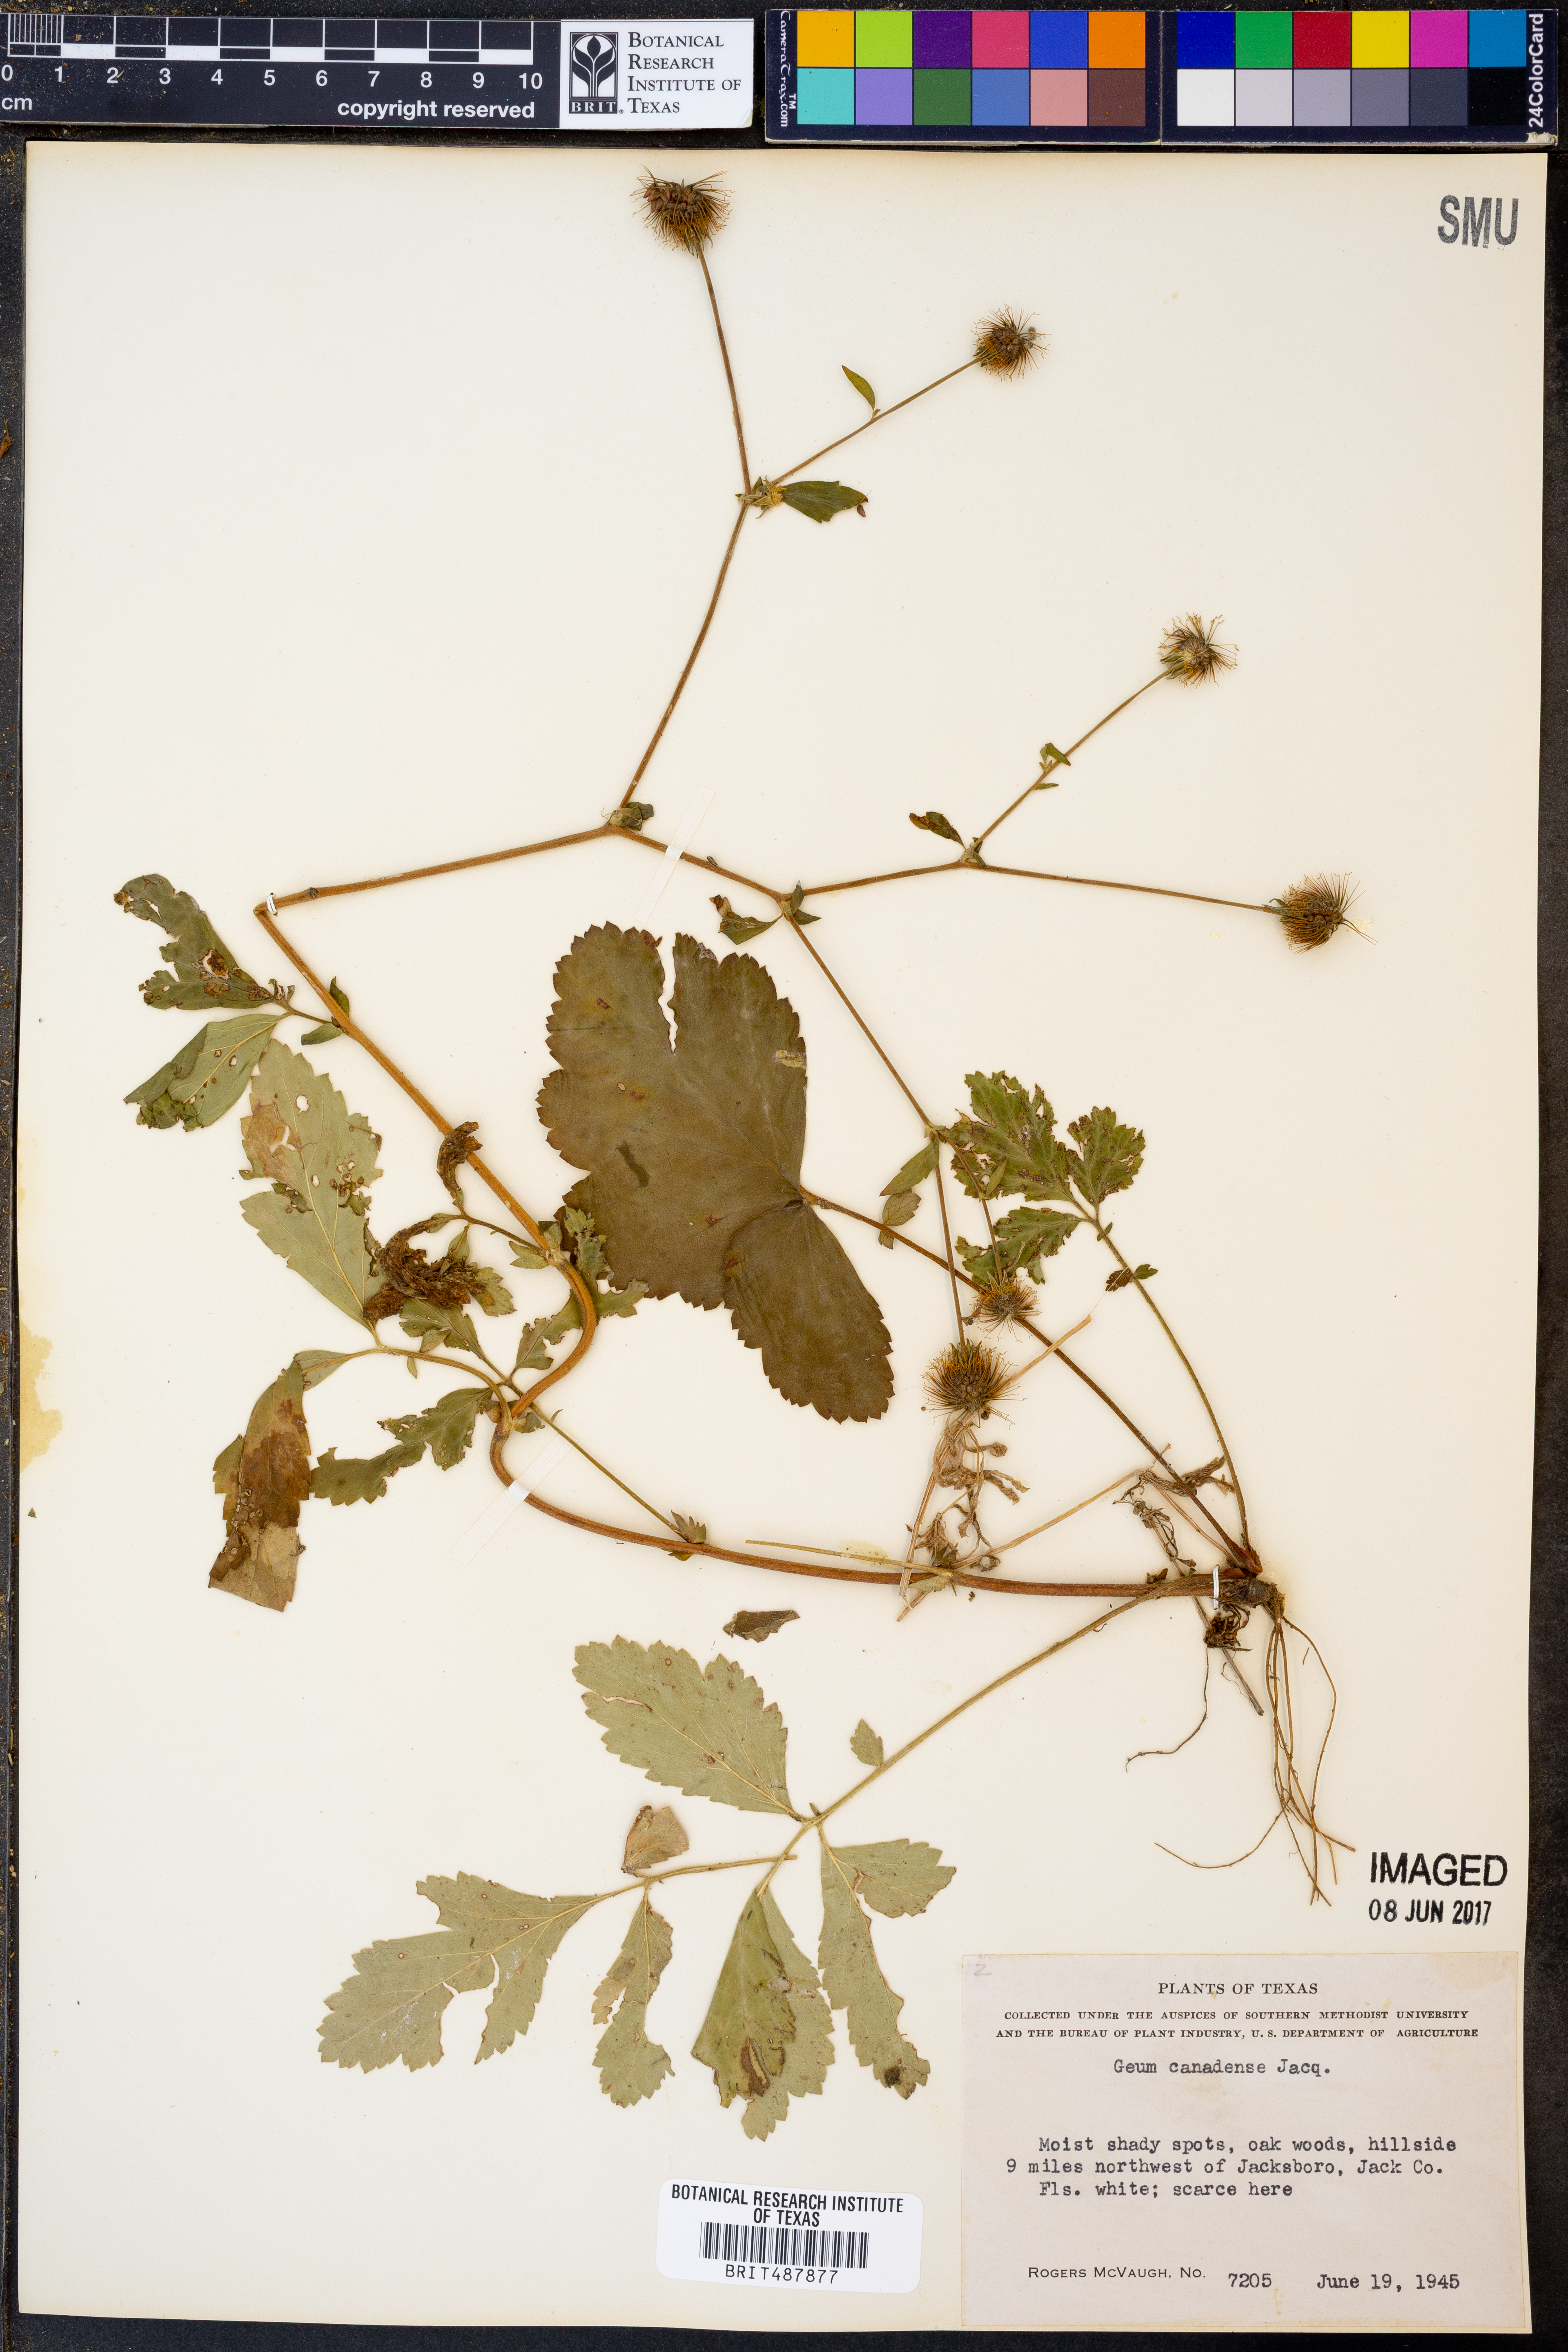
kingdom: Plantae
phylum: Tracheophyta
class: Magnoliopsida
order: Rosales
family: Rosaceae
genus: Geum
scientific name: Geum canadense
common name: White avens
